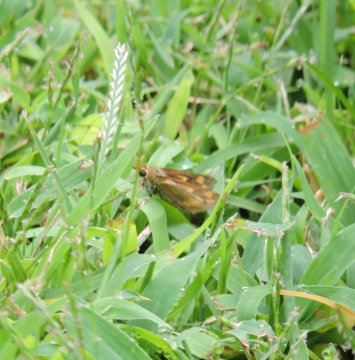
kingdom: Animalia
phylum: Arthropoda
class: Insecta
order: Lepidoptera
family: Hesperiidae
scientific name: Hesperiidae
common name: Skippers
